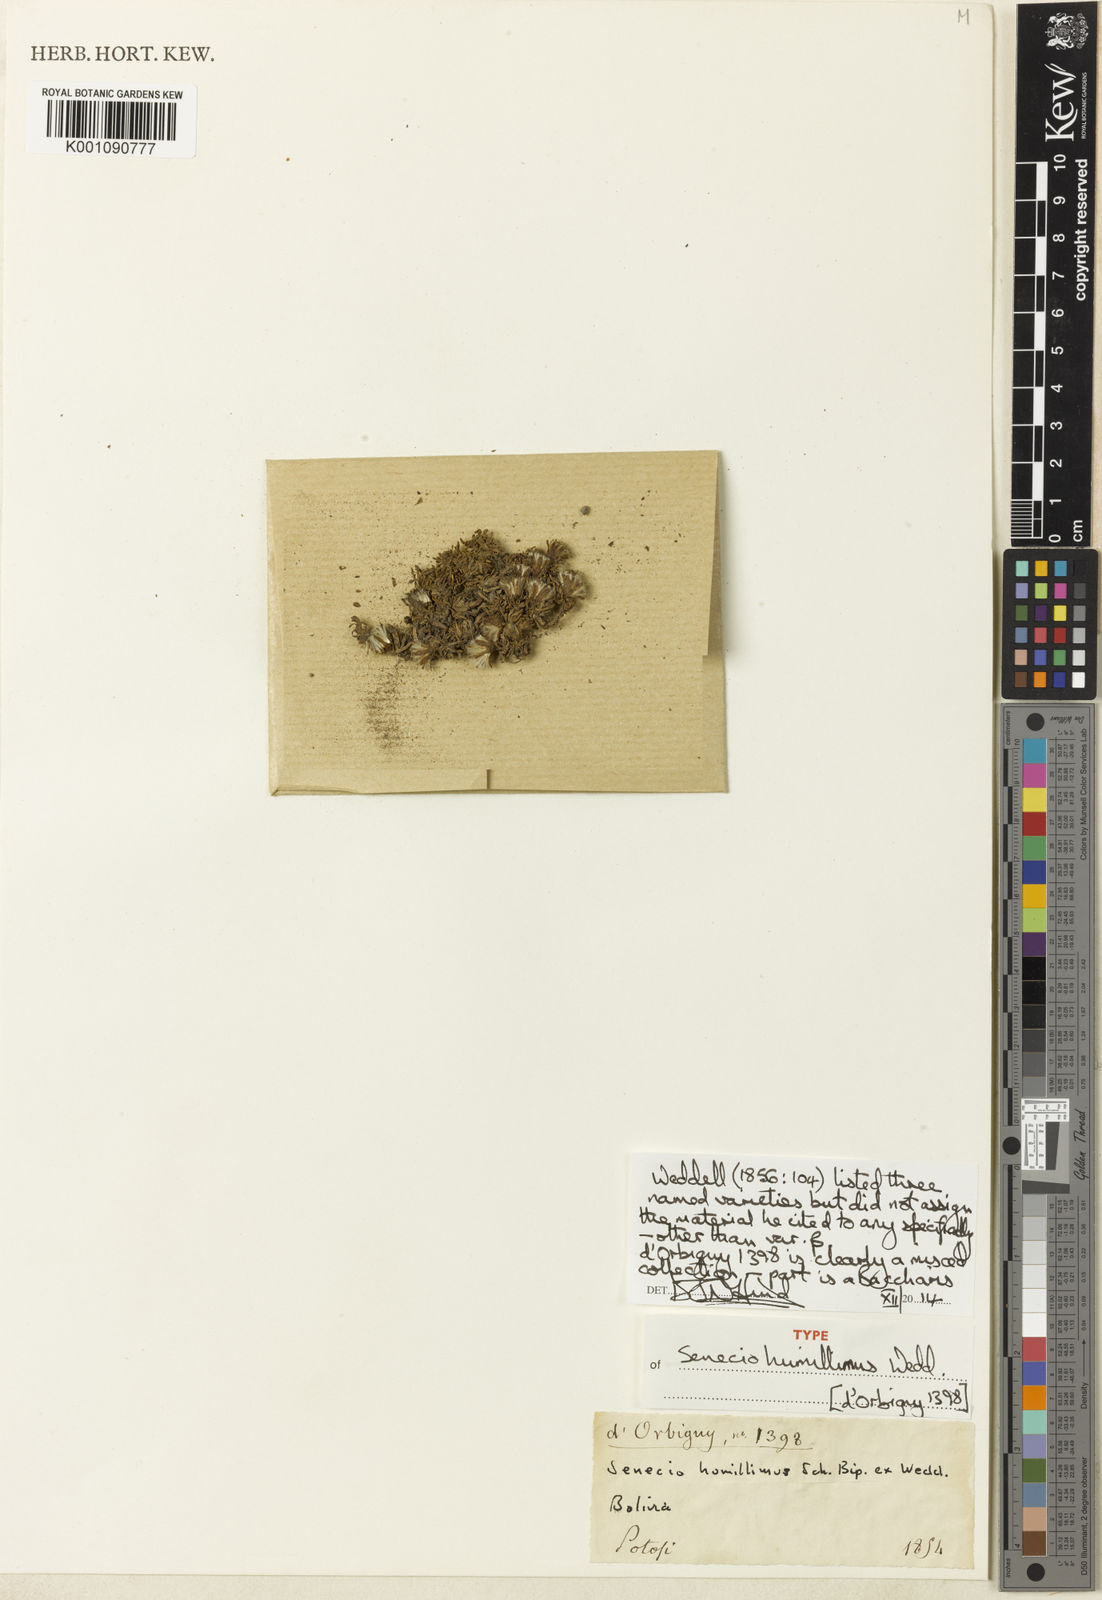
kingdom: Plantae
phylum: Tracheophyta
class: Magnoliopsida
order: Asterales
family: Asteraceae
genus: Senecio
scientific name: Senecio vegetus
